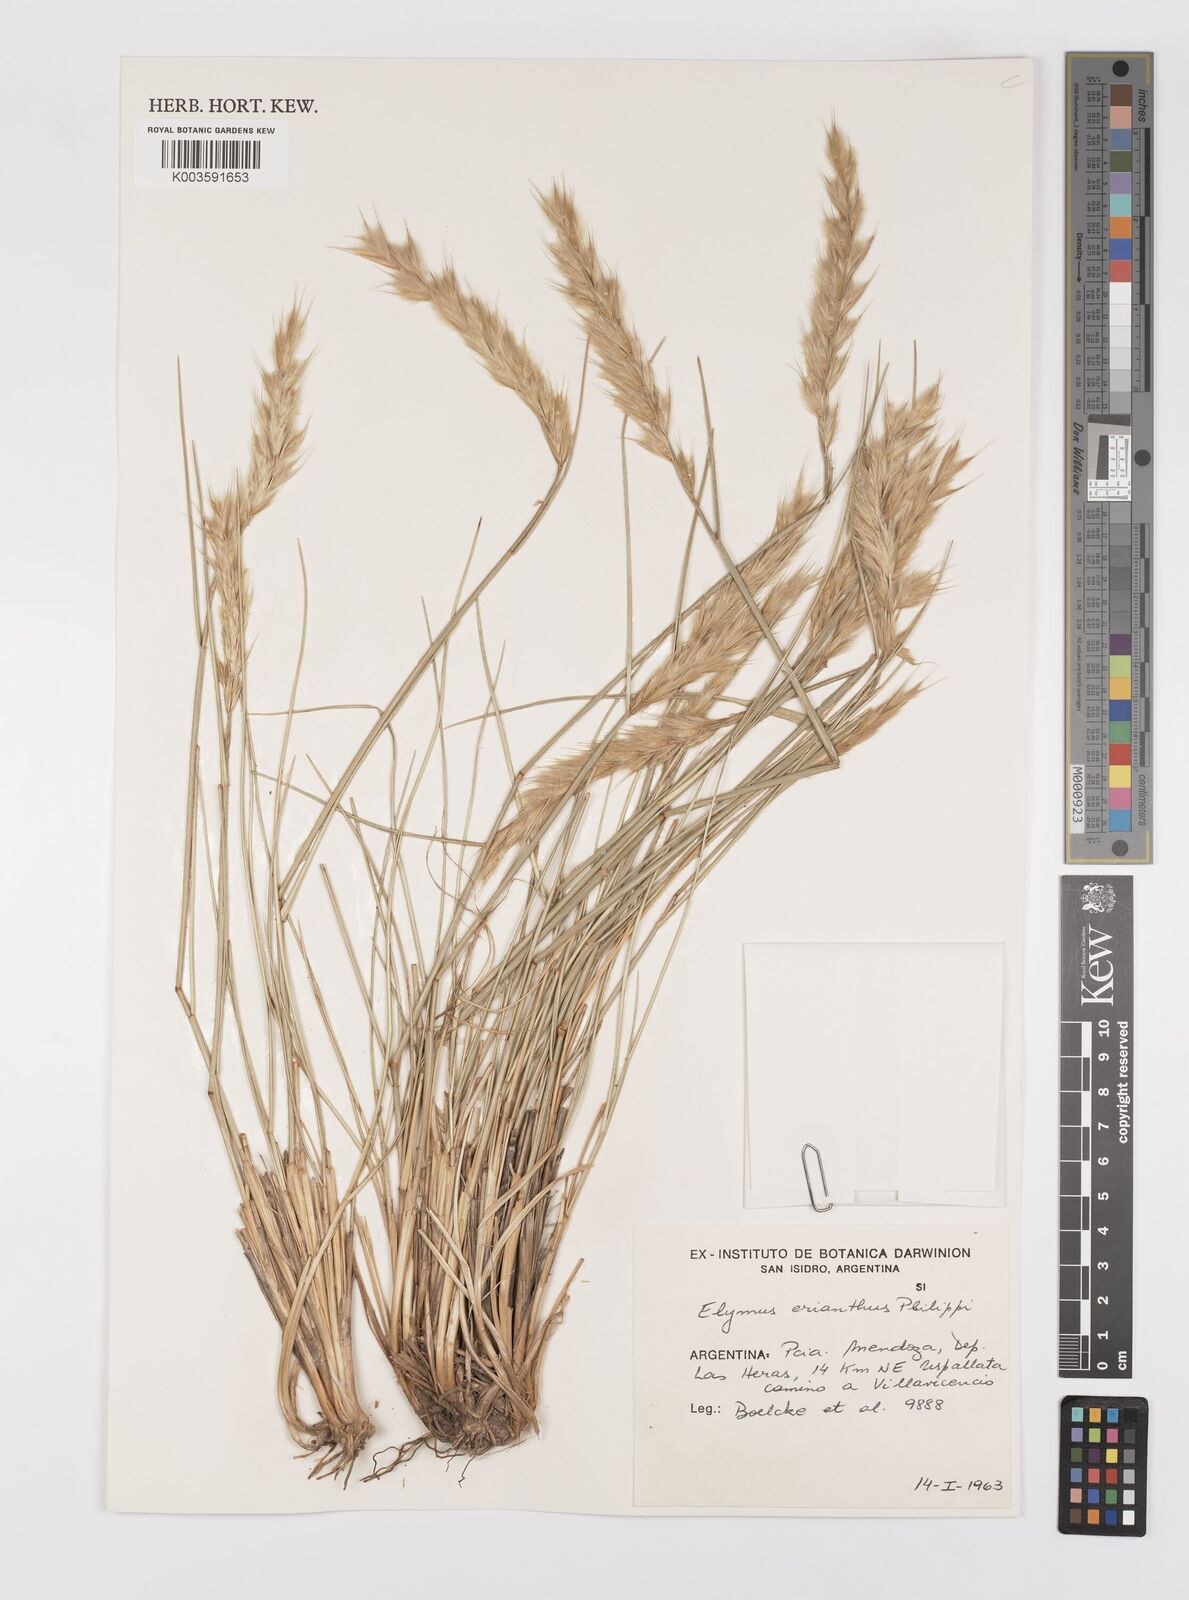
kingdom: Plantae
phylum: Tracheophyta
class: Liliopsida
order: Poales
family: Poaceae
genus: Leymus
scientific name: Leymus erianthus
